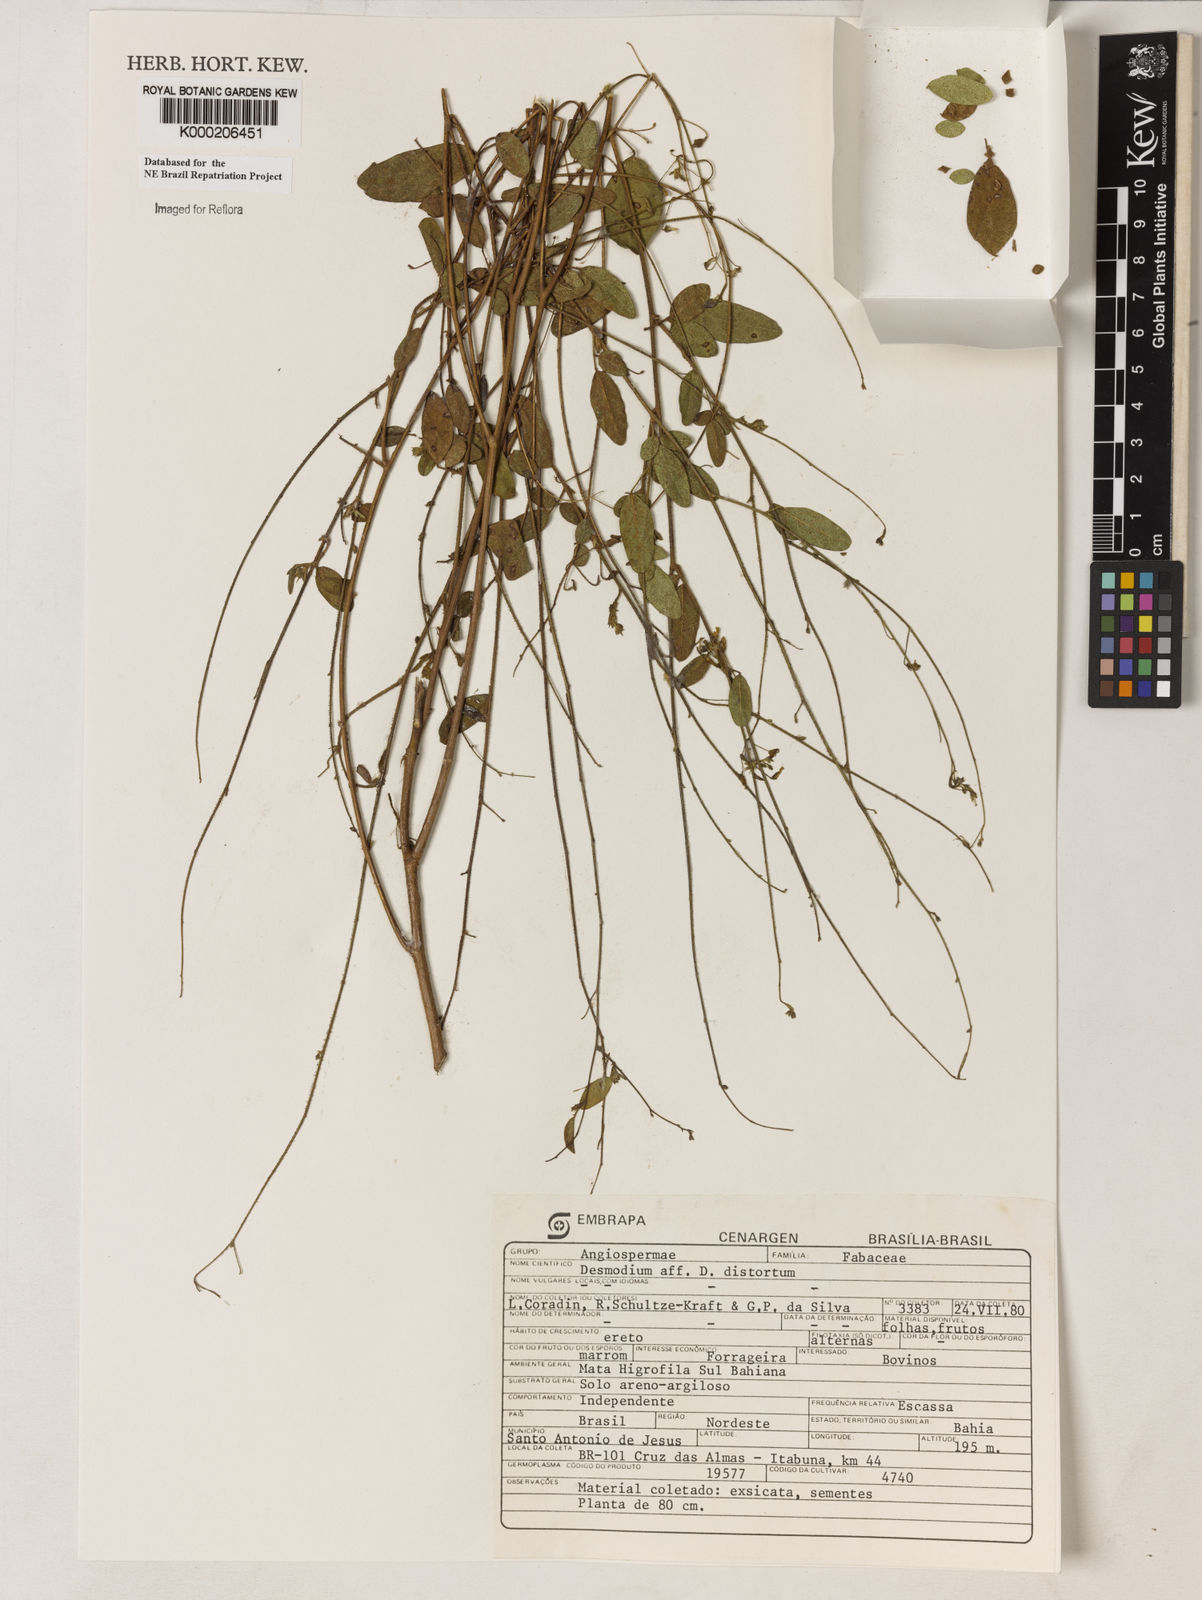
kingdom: Plantae
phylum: Tracheophyta
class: Magnoliopsida
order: Fabales
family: Fabaceae
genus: Desmodium
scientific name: Desmodium distortum
